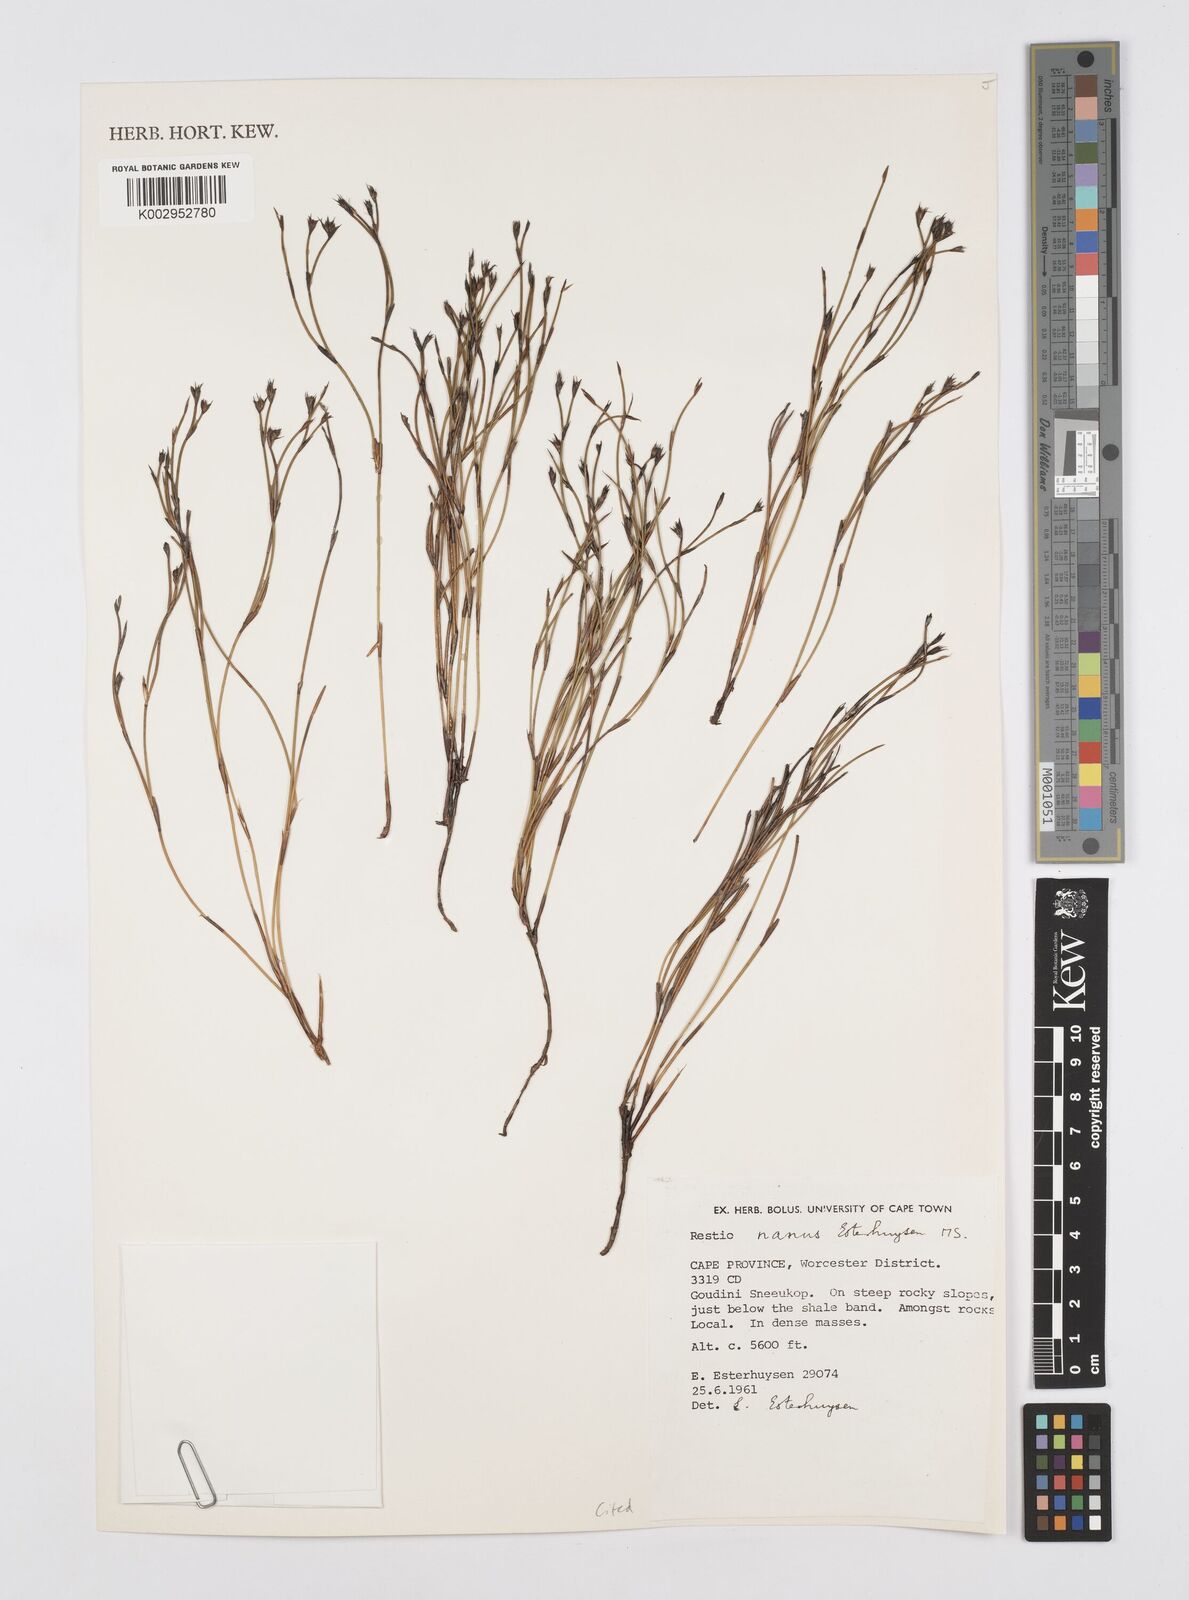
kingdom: Plantae
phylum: Tracheophyta
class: Liliopsida
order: Poales
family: Restionaceae
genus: Restio
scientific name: Restio nanus
